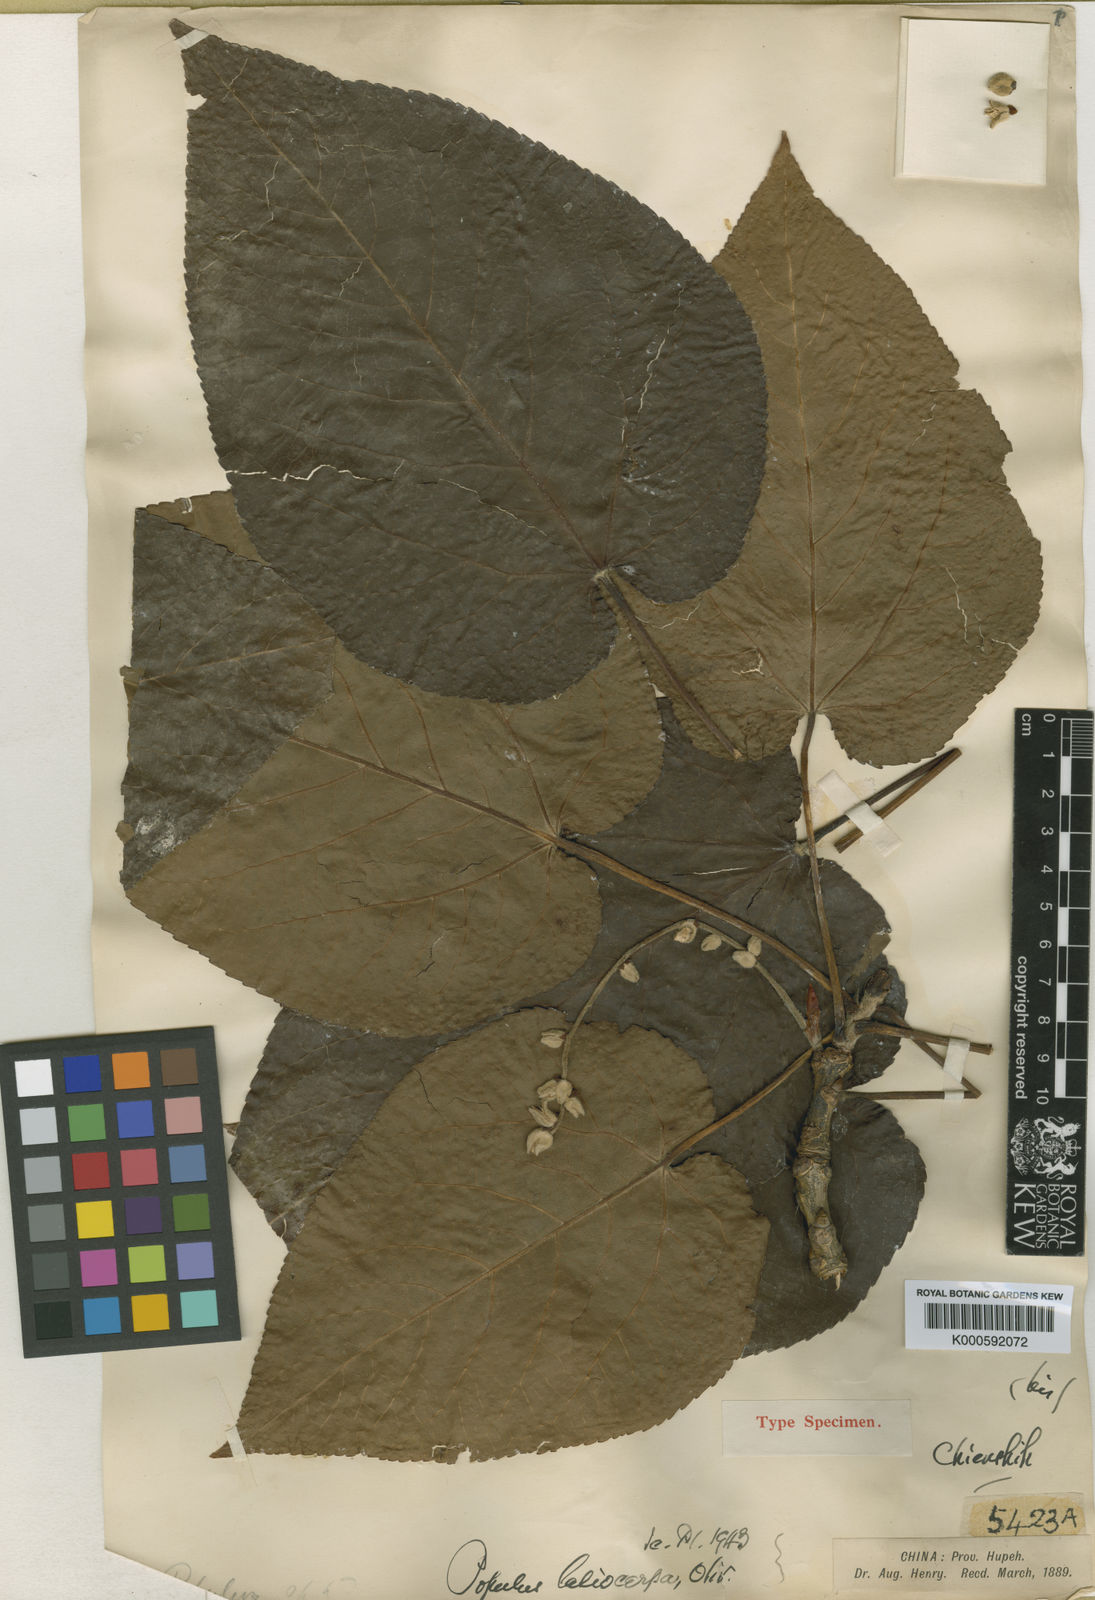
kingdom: Plantae
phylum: Tracheophyta
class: Magnoliopsida
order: Malpighiales
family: Salicaceae
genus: Populus
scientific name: Populus lasiocarpa
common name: Chinese necklace poplar
